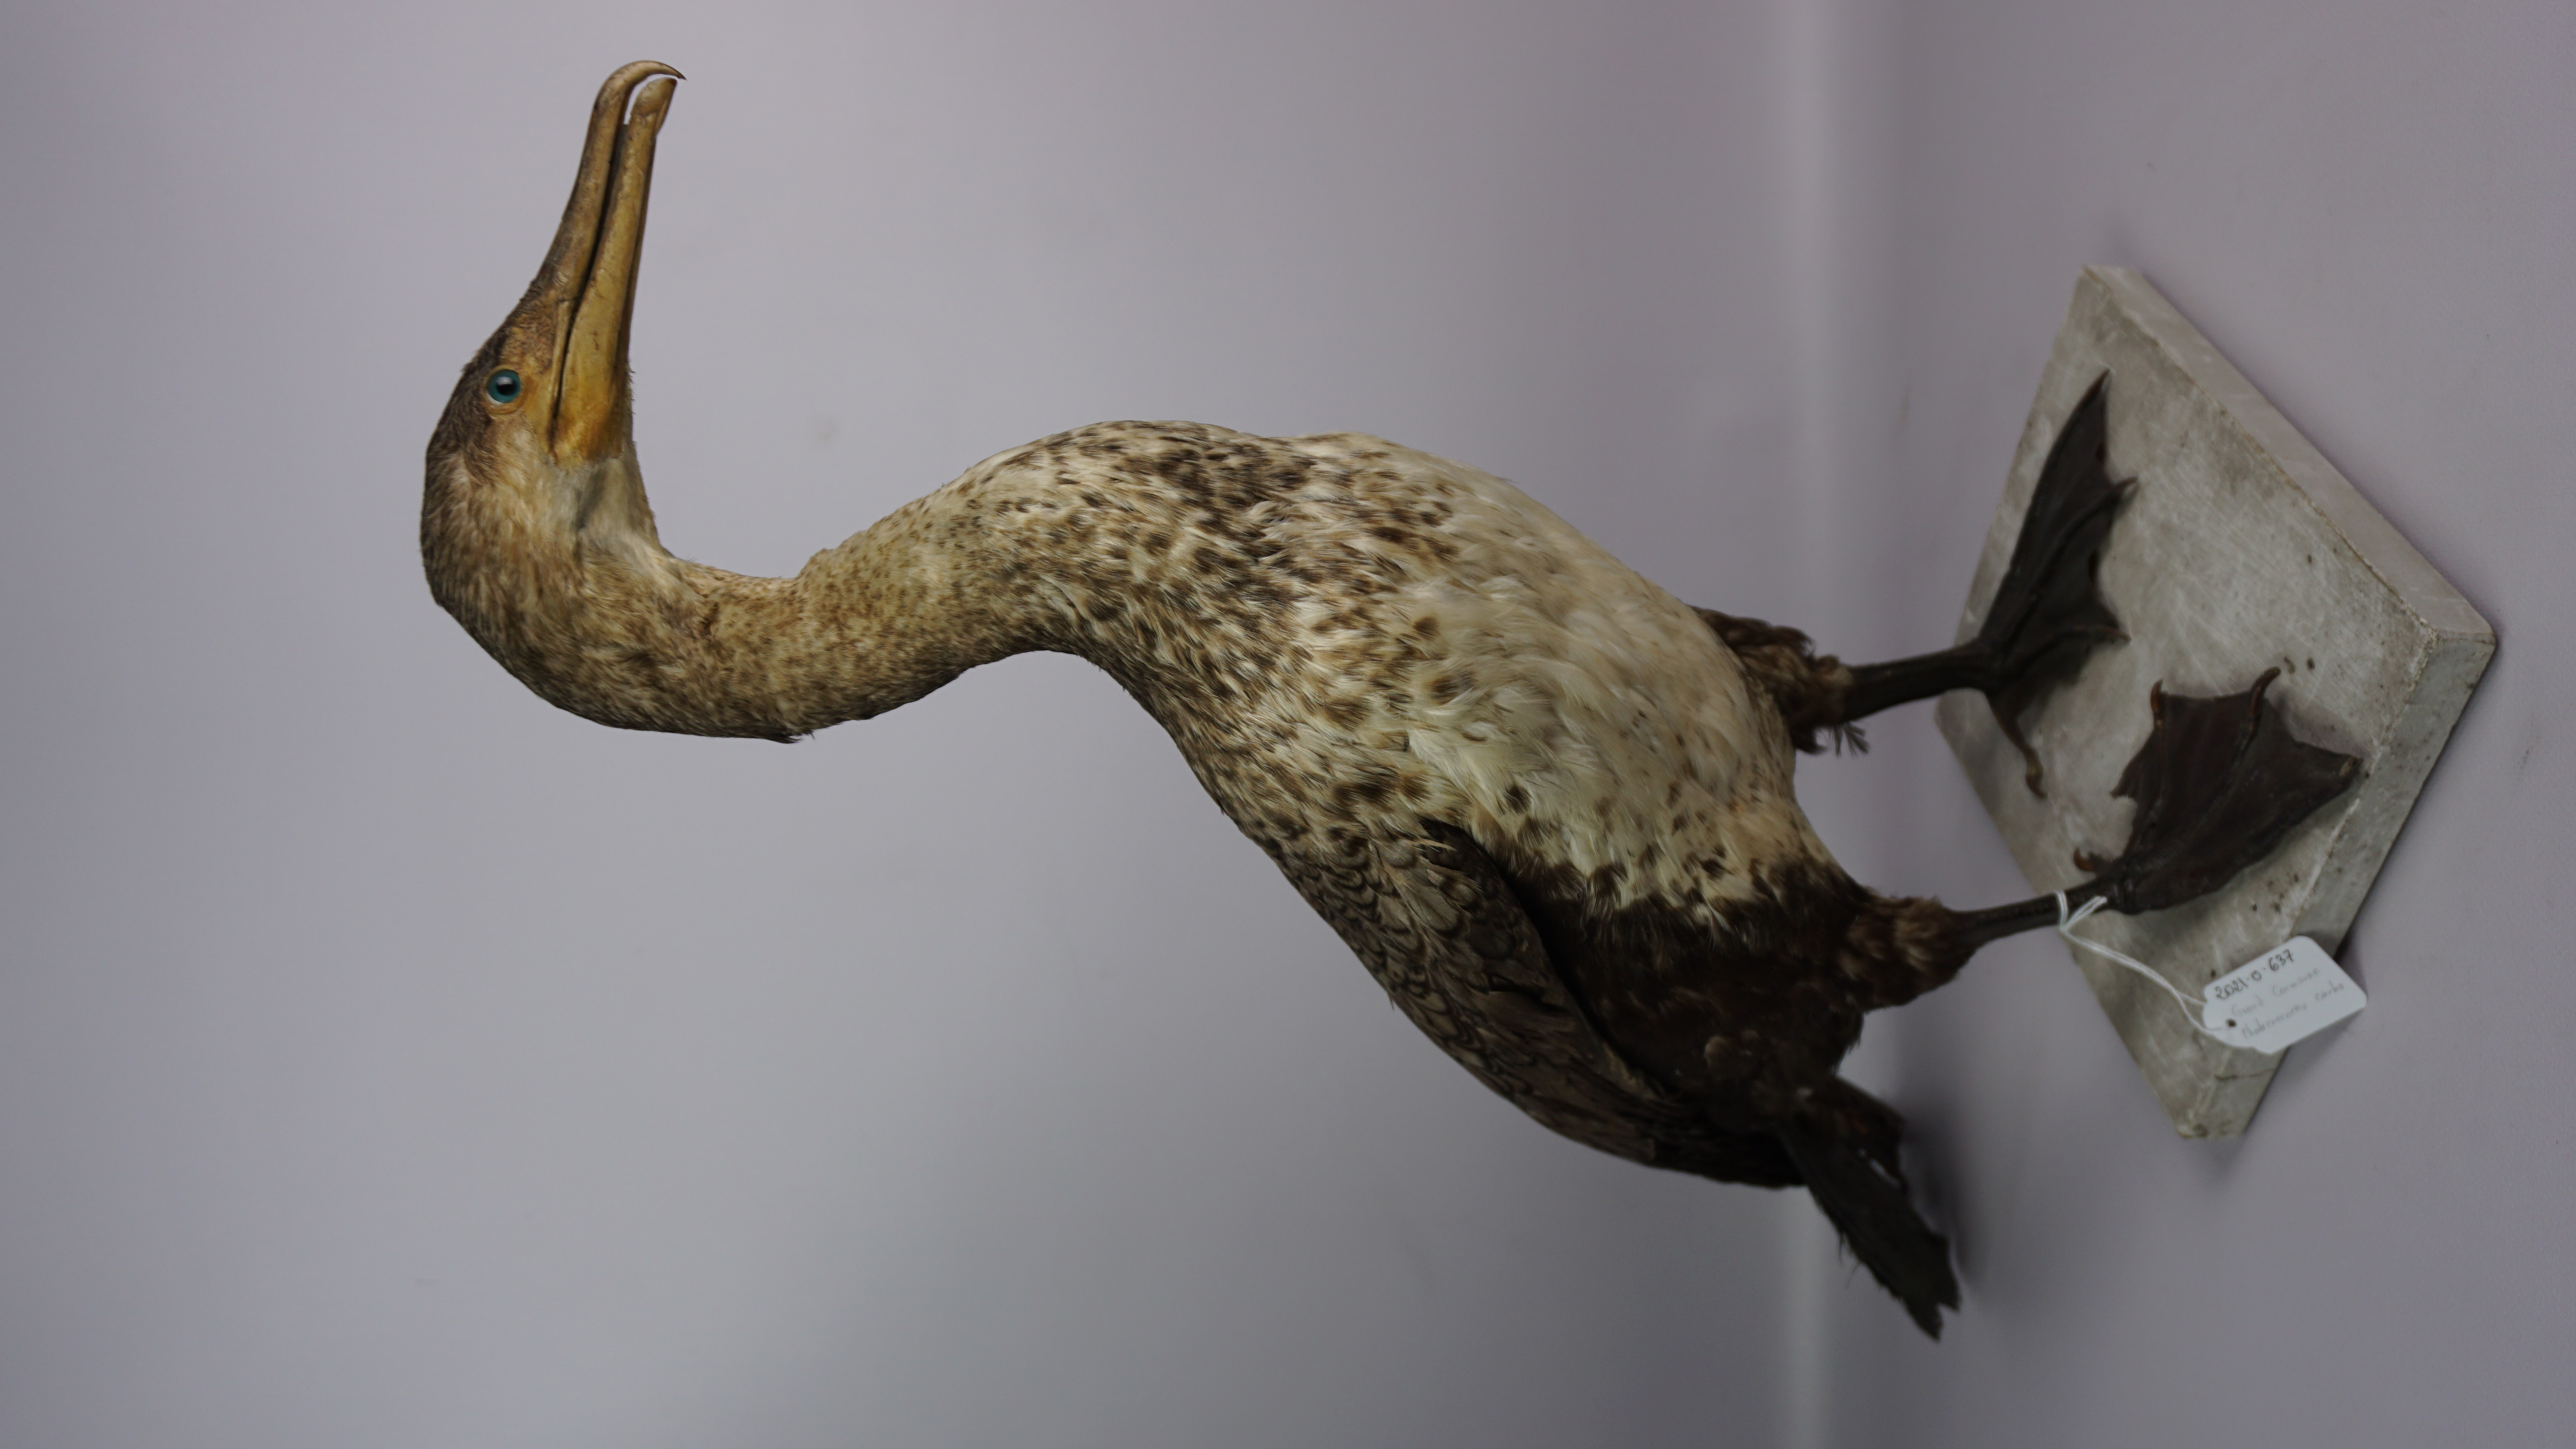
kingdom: Animalia
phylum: Chordata
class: Aves
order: Suliformes
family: Phalacrocoracidae
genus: Phalacrocorax
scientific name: Phalacrocorax carbo
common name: Great cormorant
